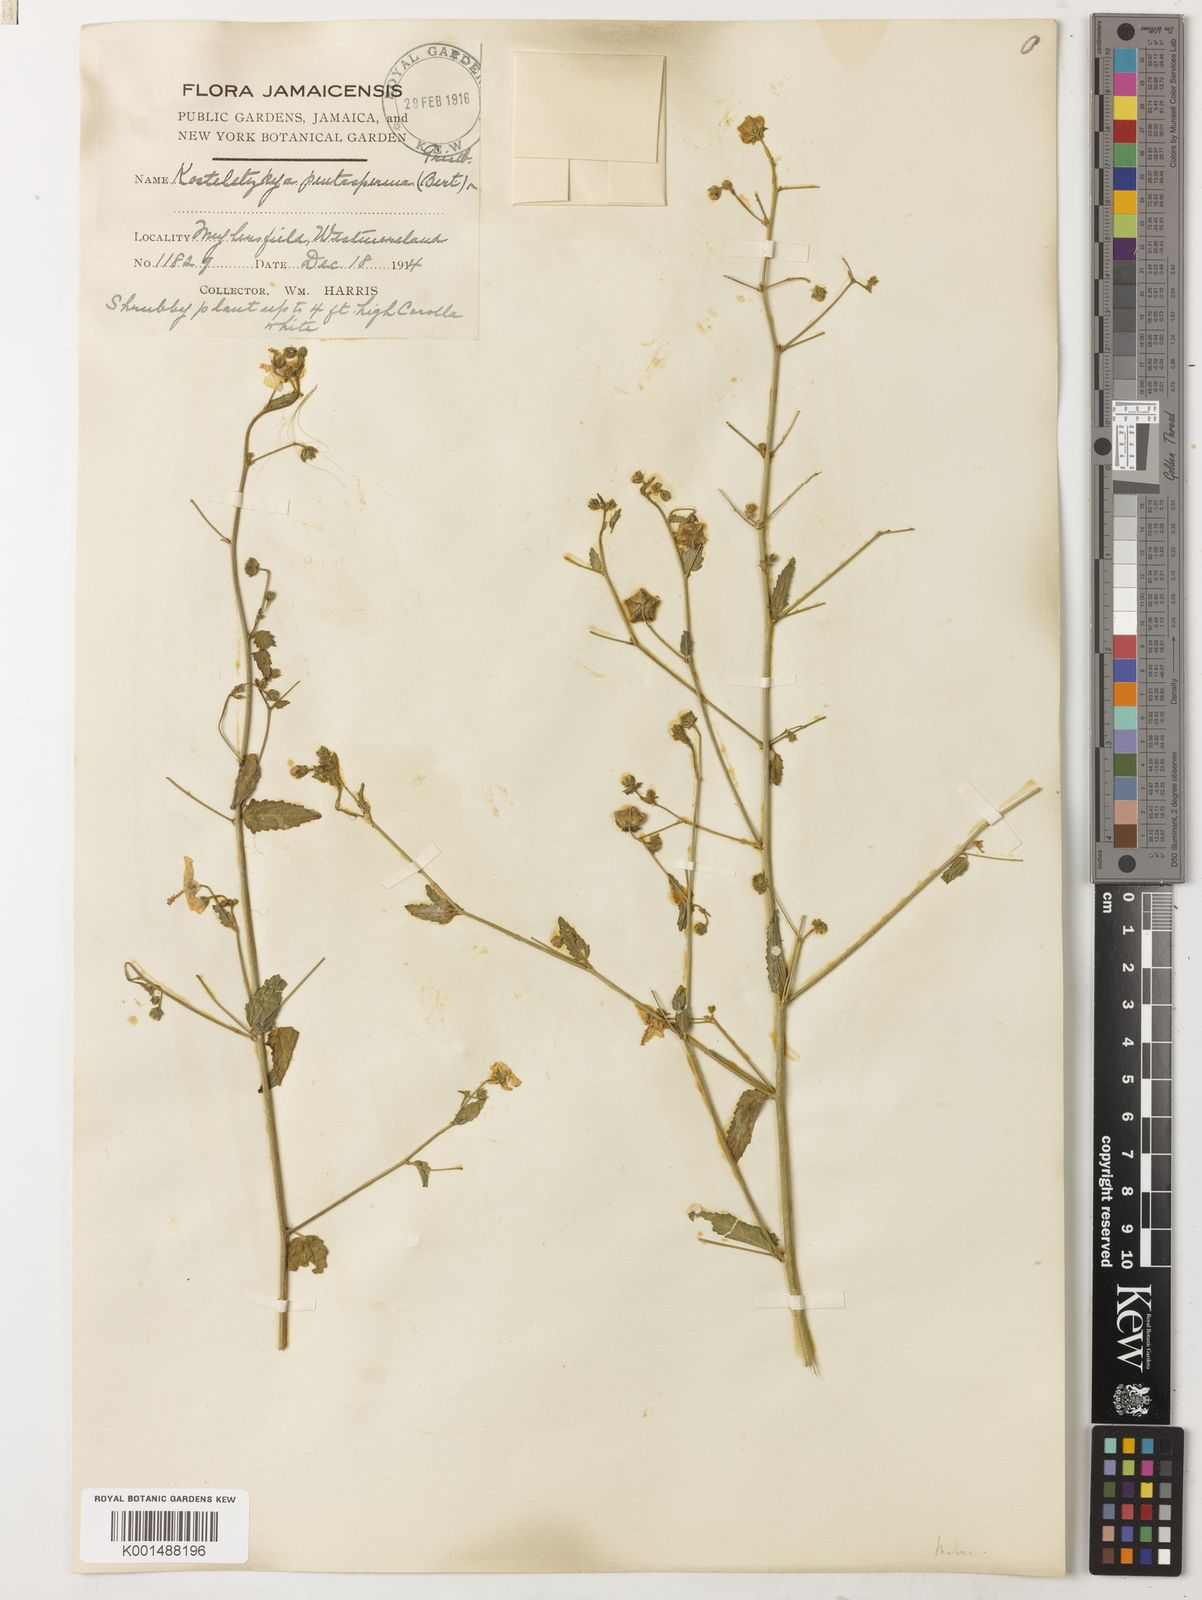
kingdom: Plantae
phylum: Tracheophyta
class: Magnoliopsida
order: Malvales
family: Malvaceae
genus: Kosteletzkya
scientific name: Kosteletzkya depressa
